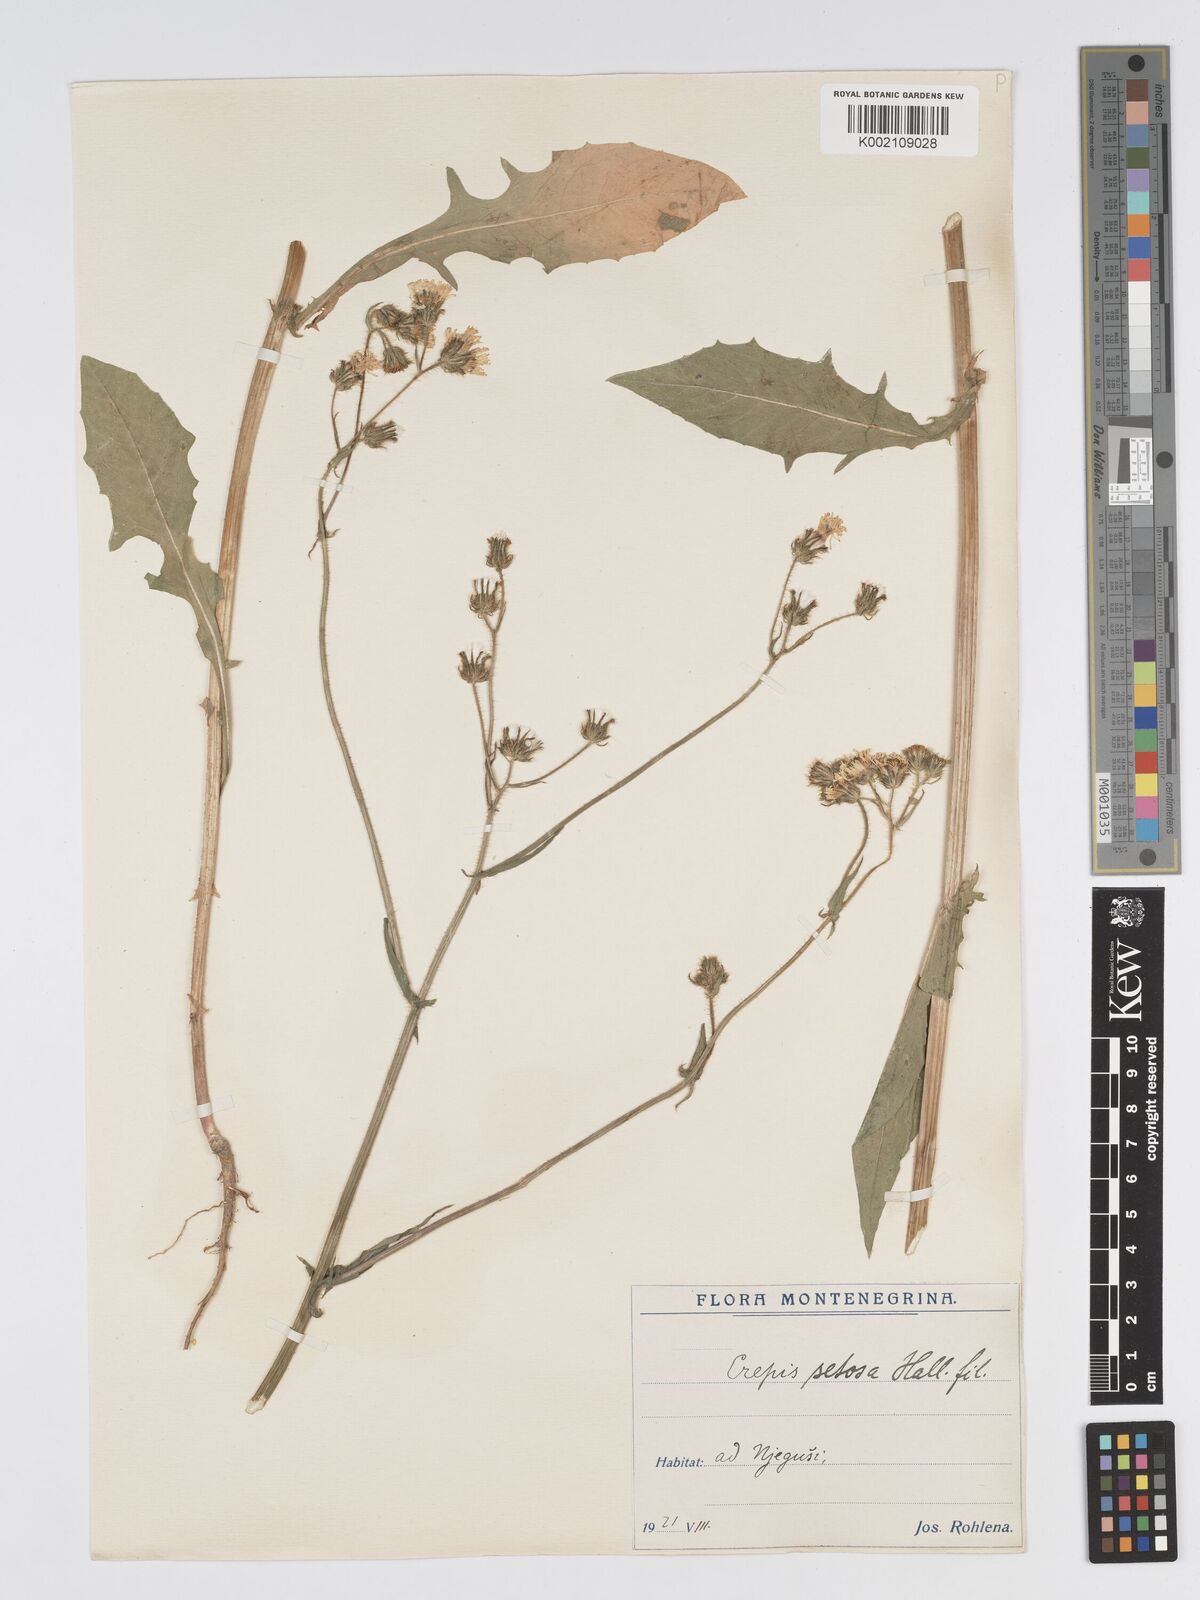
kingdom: Plantae
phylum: Tracheophyta
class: Magnoliopsida
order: Asterales
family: Asteraceae
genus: Crepis
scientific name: Crepis setosa
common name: Bristly hawk's-beard
